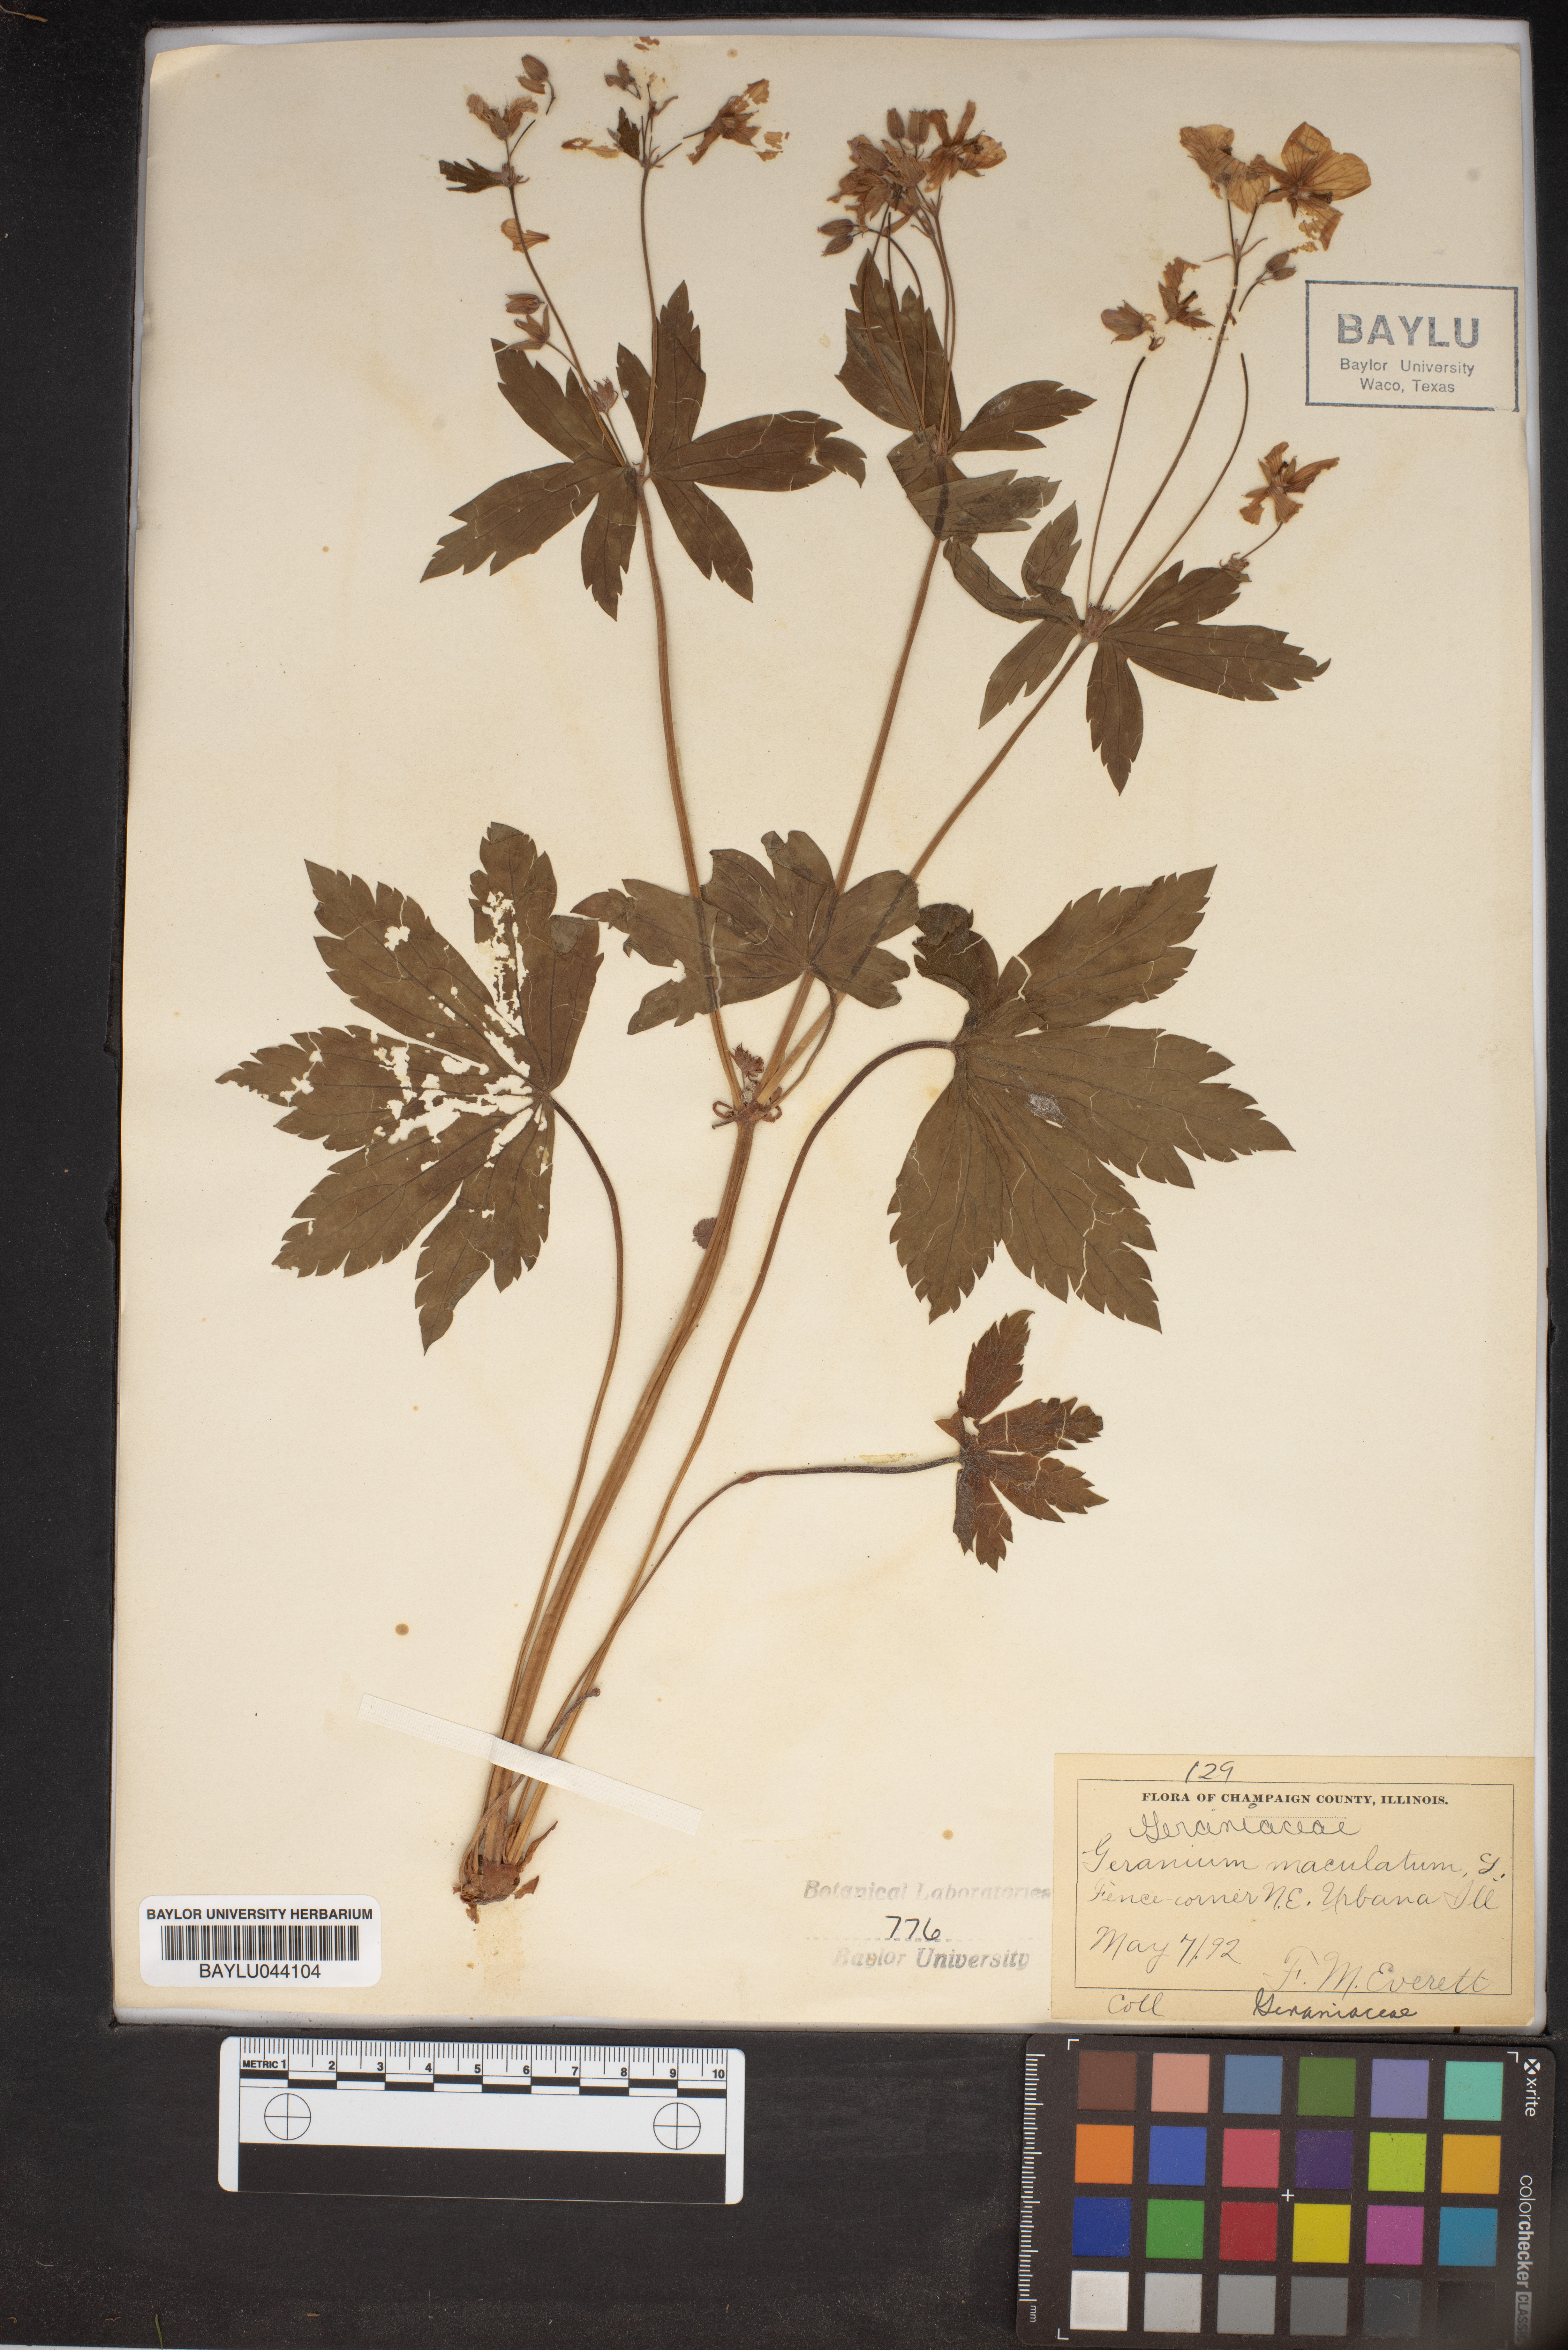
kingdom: Plantae
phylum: Tracheophyta
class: Magnoliopsida
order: Geraniales
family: Geraniaceae
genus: Geranium
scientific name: Geranium maculatum
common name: Spotted geranium
